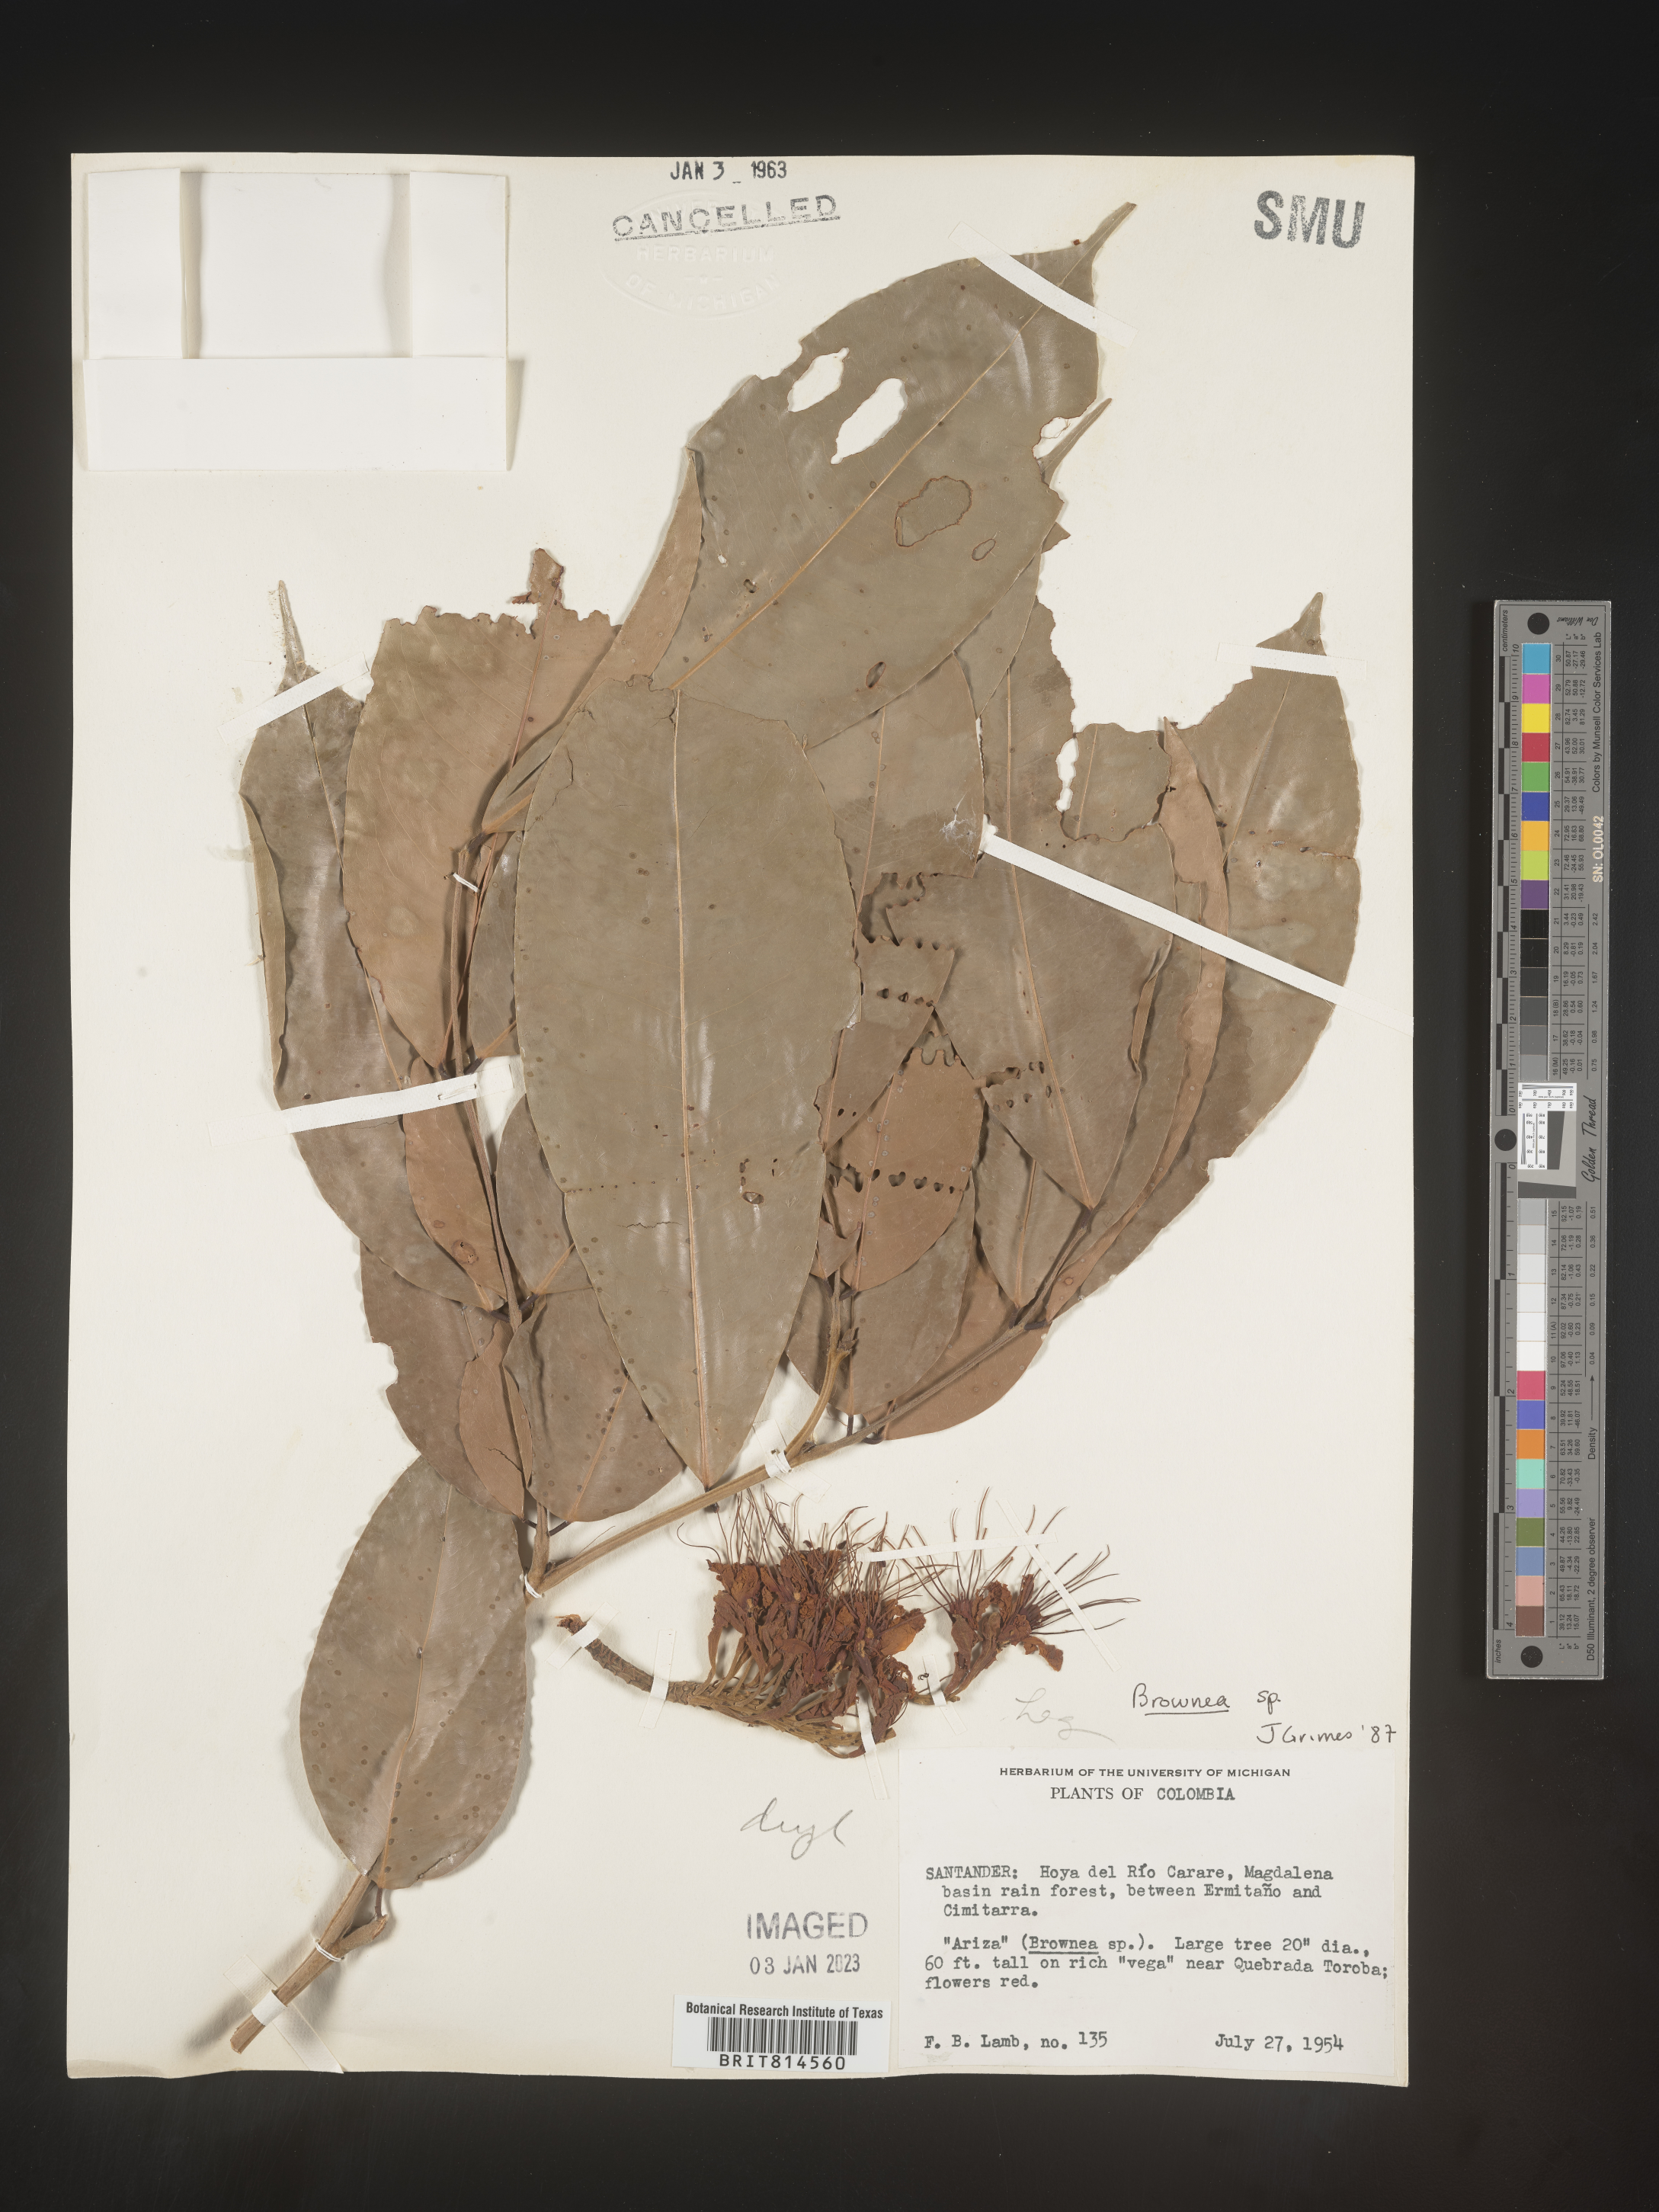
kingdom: Plantae
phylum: Tracheophyta
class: Magnoliopsida
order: Fabales
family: Fabaceae
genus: Brownea
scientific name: Brownea
